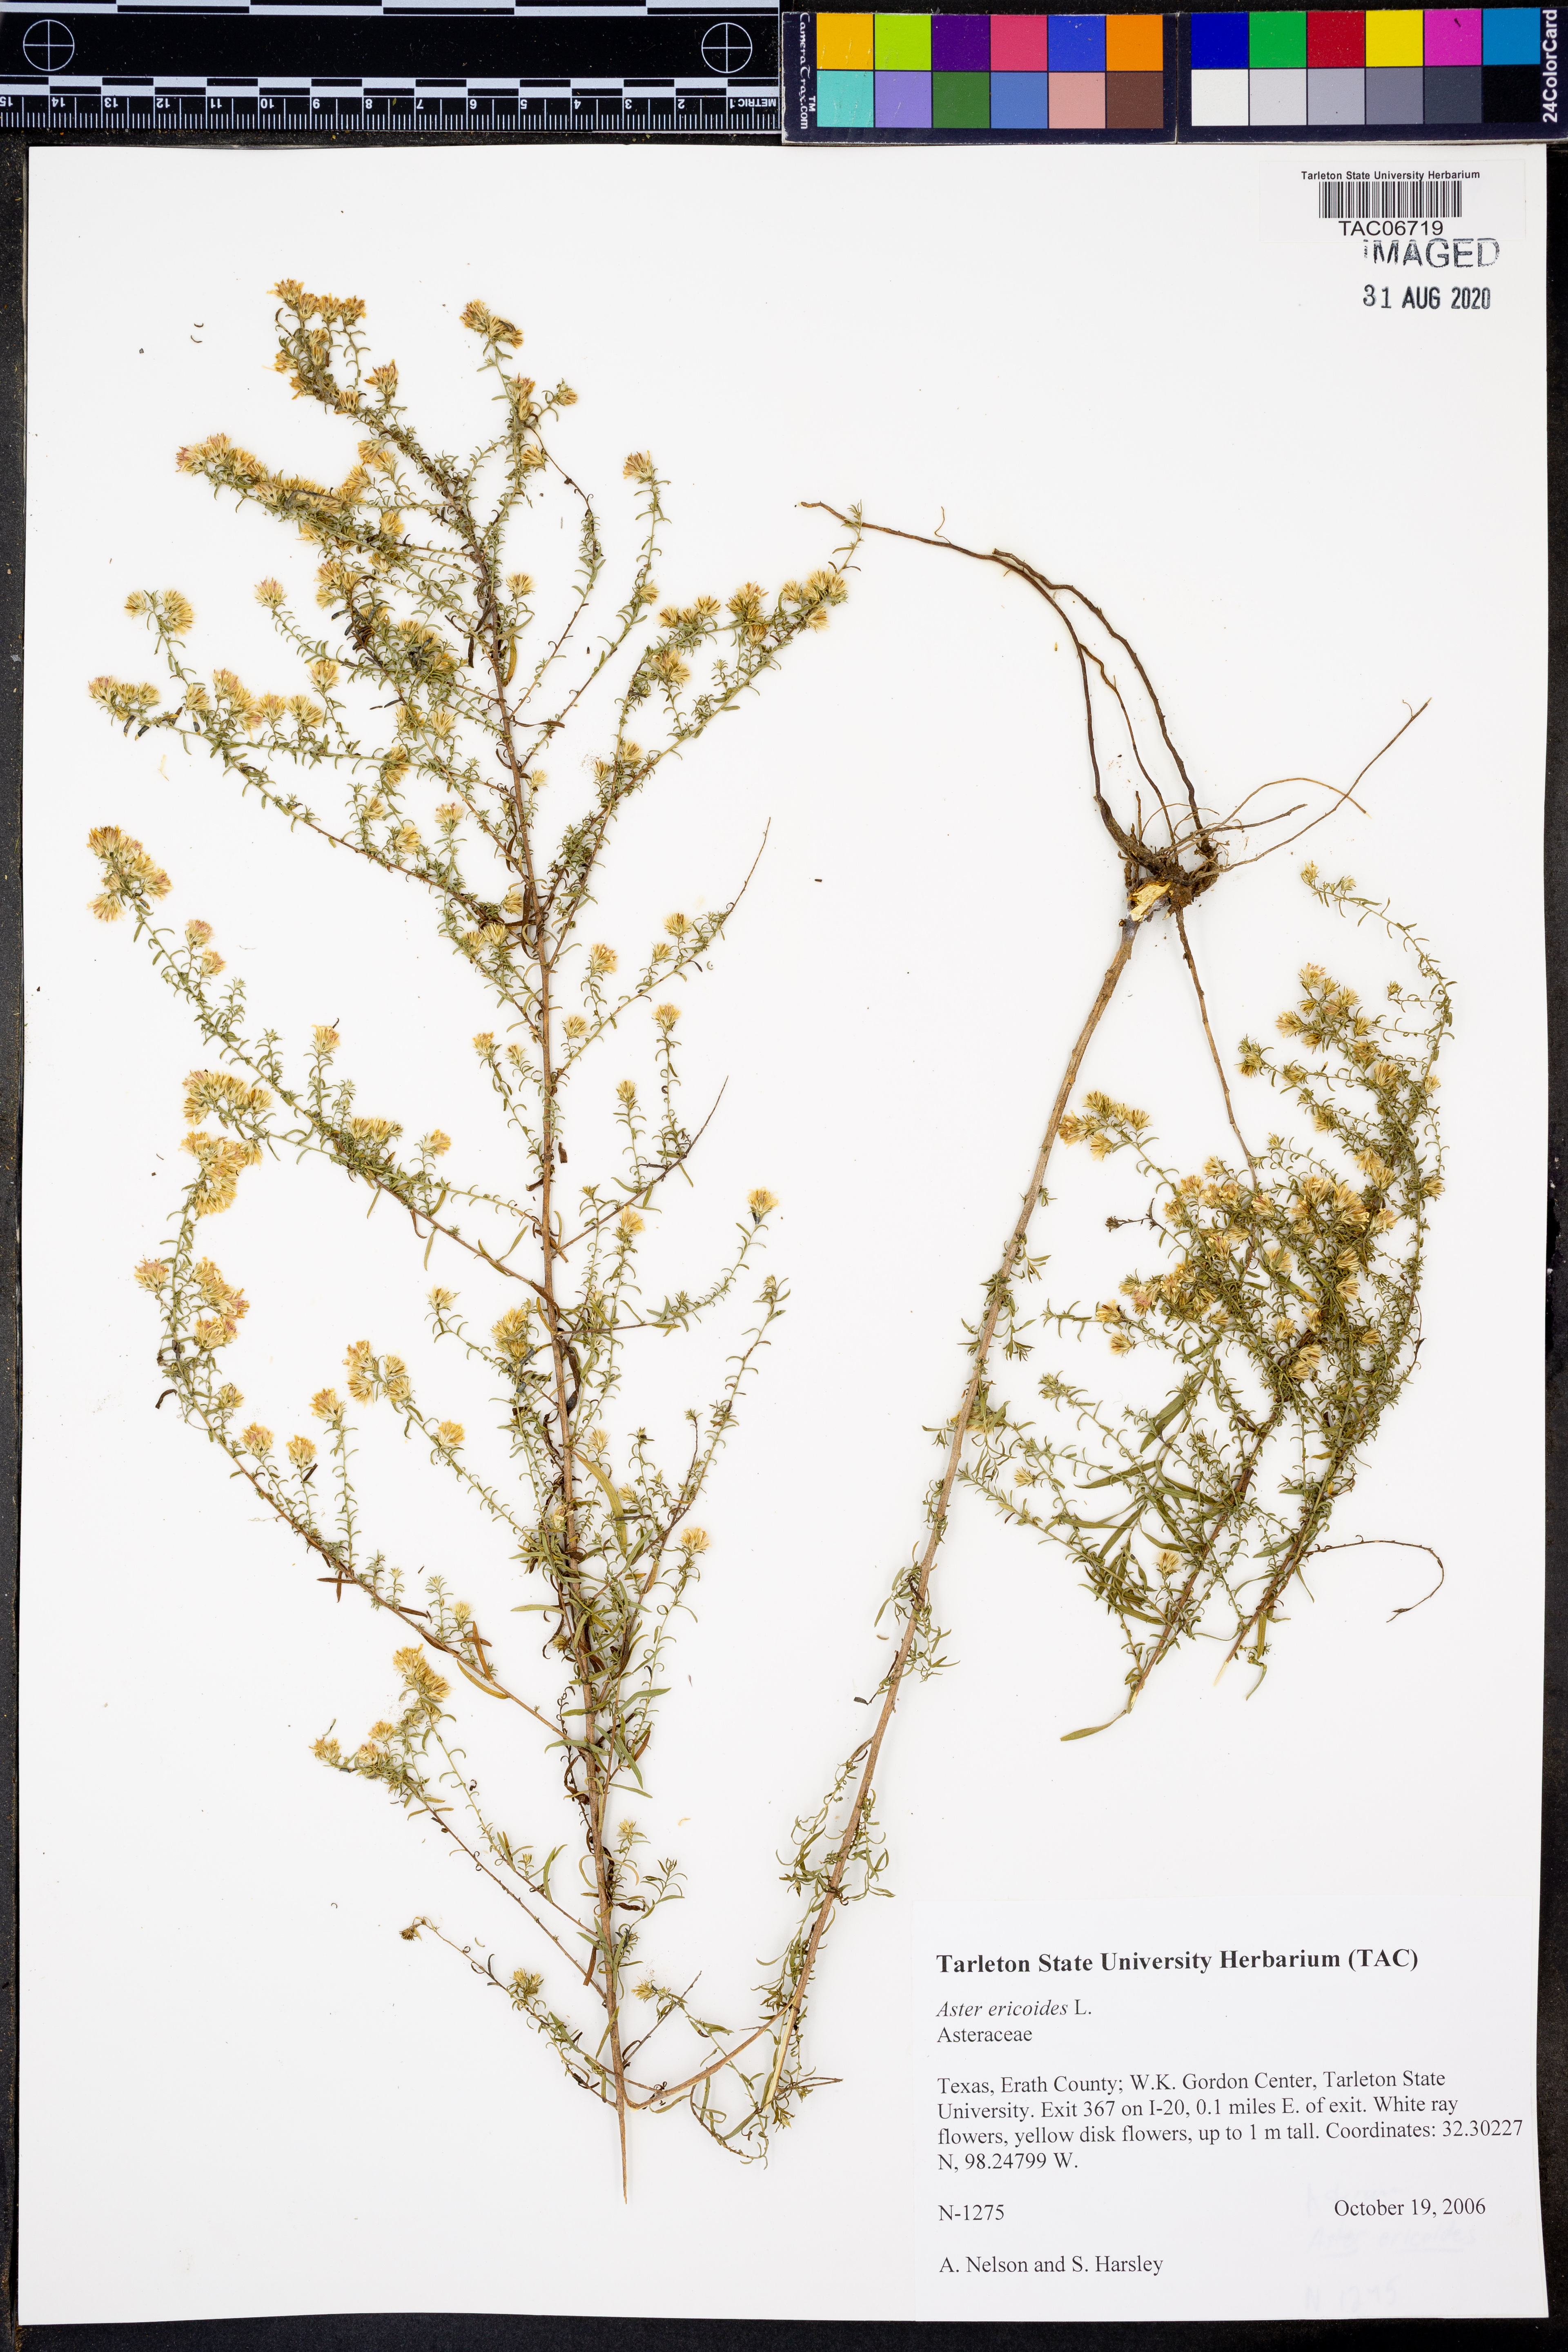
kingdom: Plantae
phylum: Tracheophyta
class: Magnoliopsida
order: Asterales
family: Asteraceae
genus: Symphyotrichum
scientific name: Symphyotrichum ericoides
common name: Heath aster
